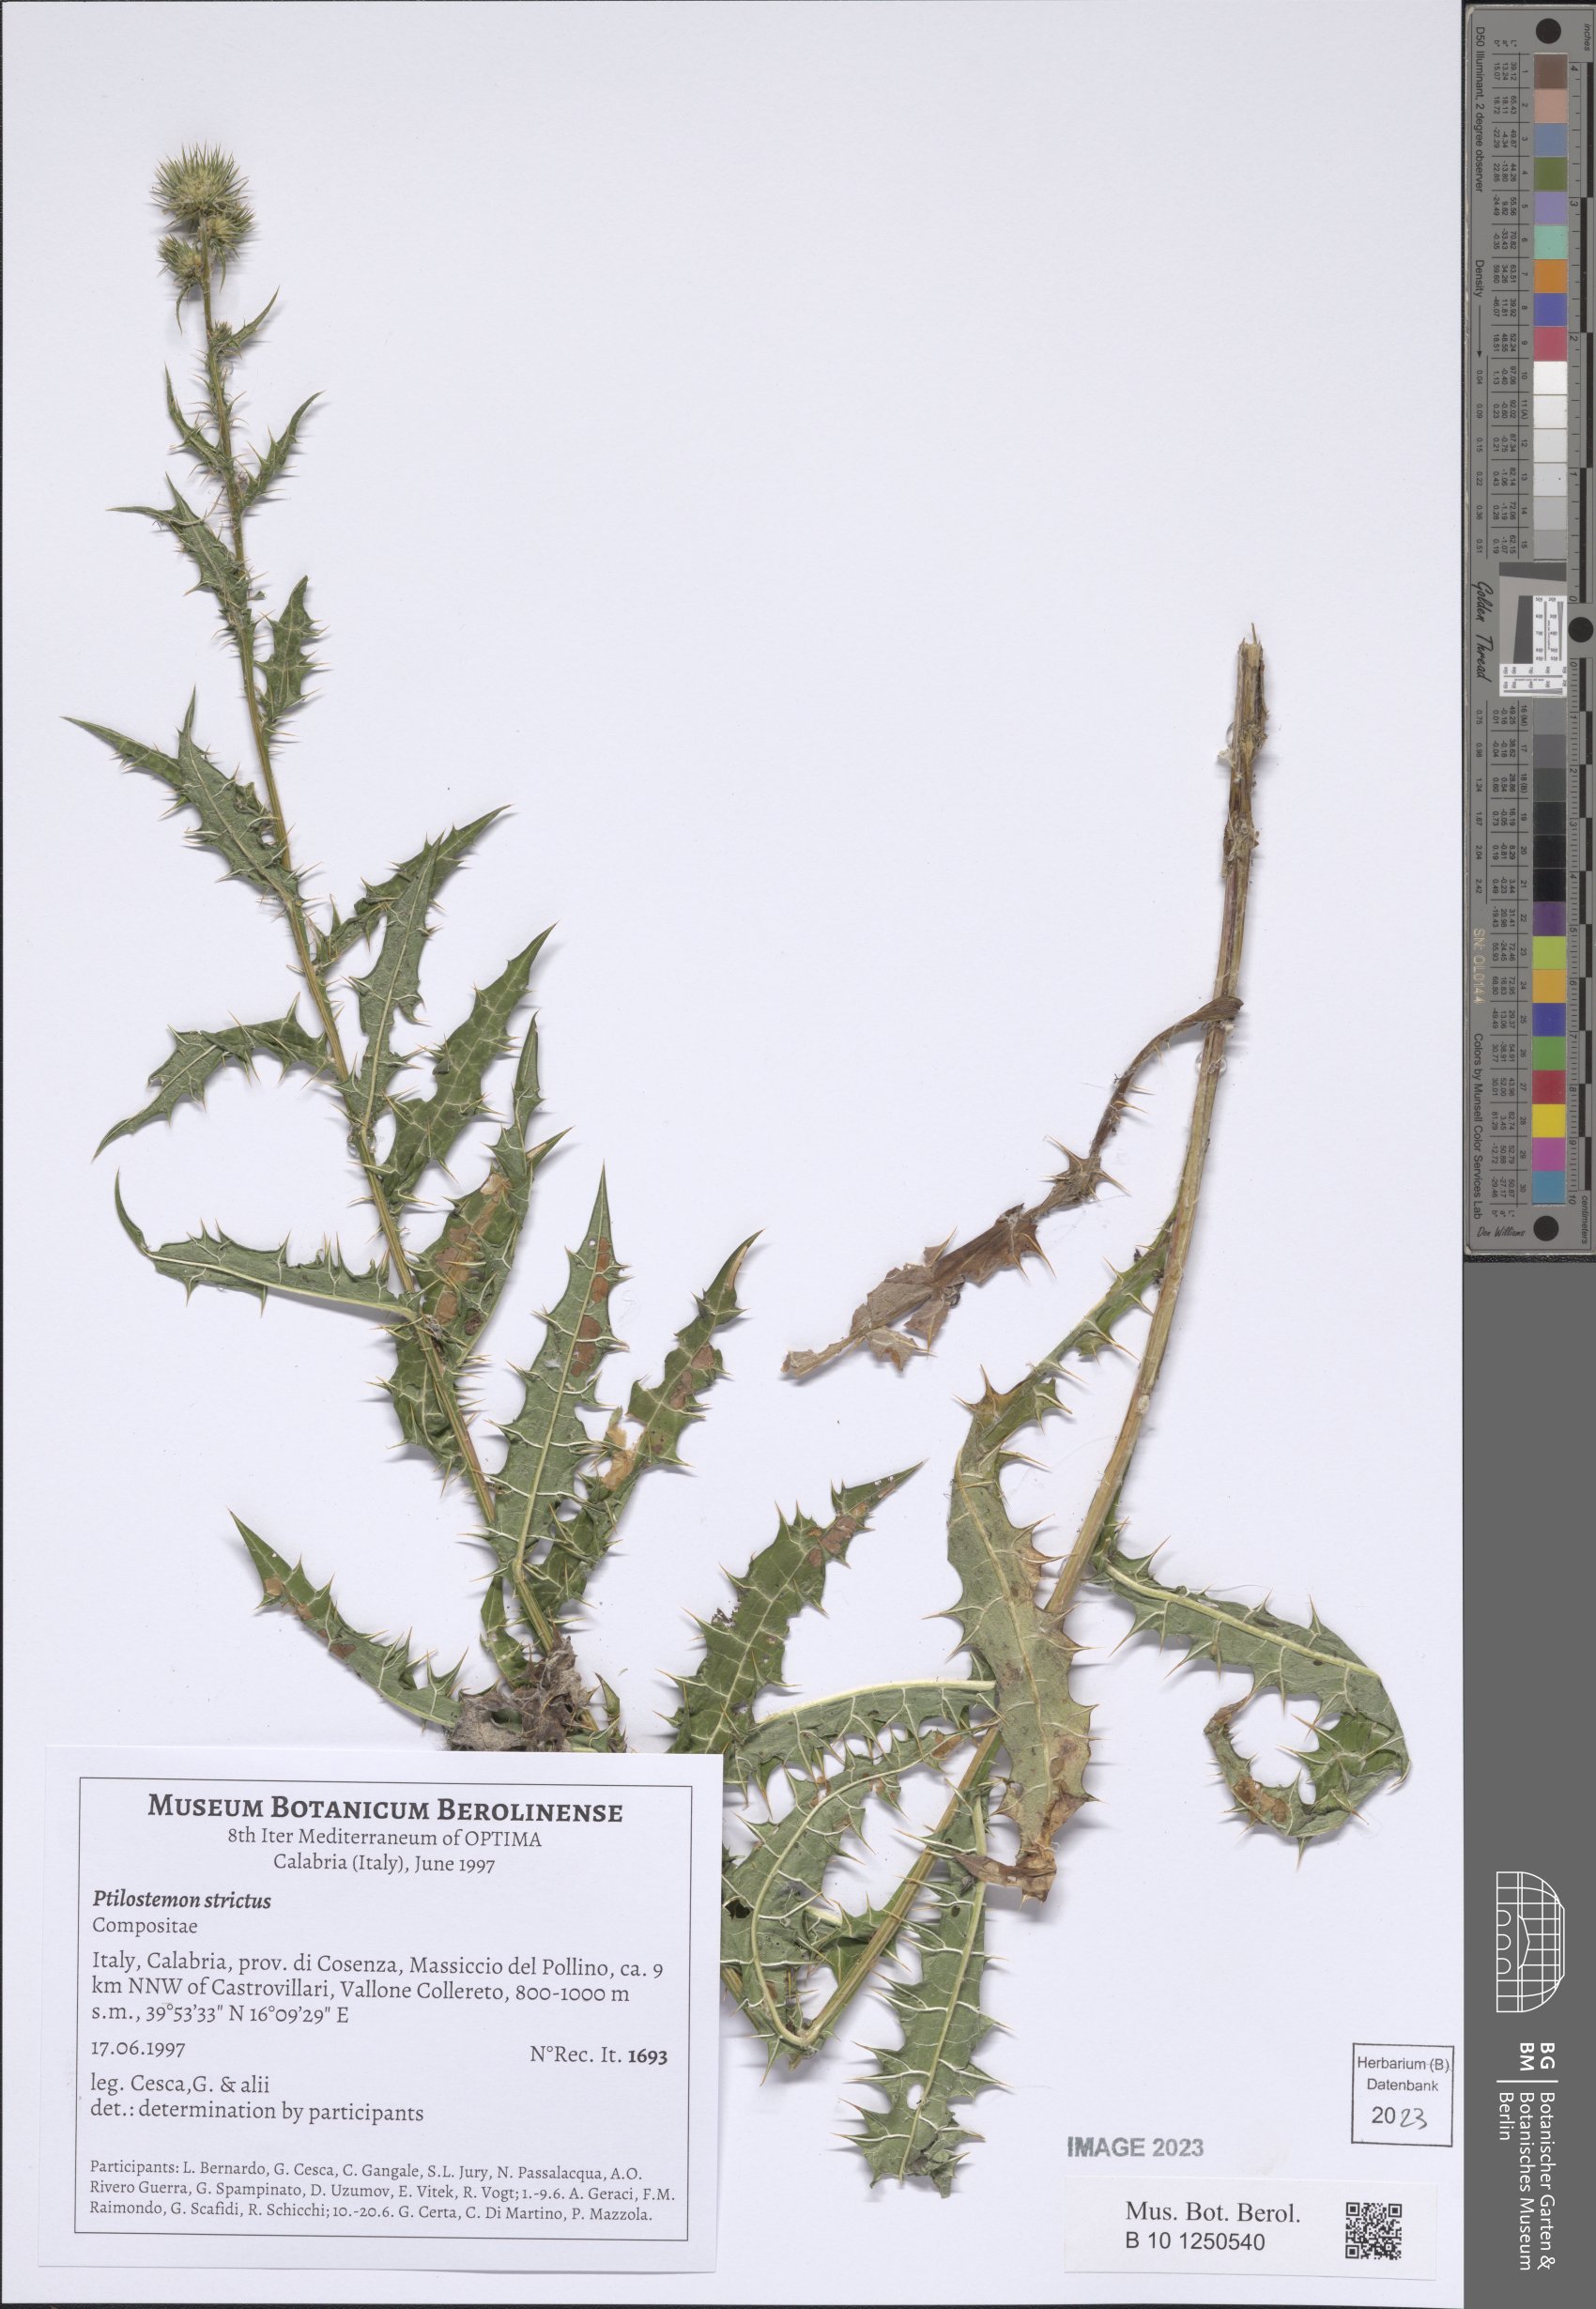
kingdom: Plantae
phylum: Tracheophyta
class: Magnoliopsida
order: Asterales
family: Asteraceae
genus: Ptilostemon
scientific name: Ptilostemon strictus
